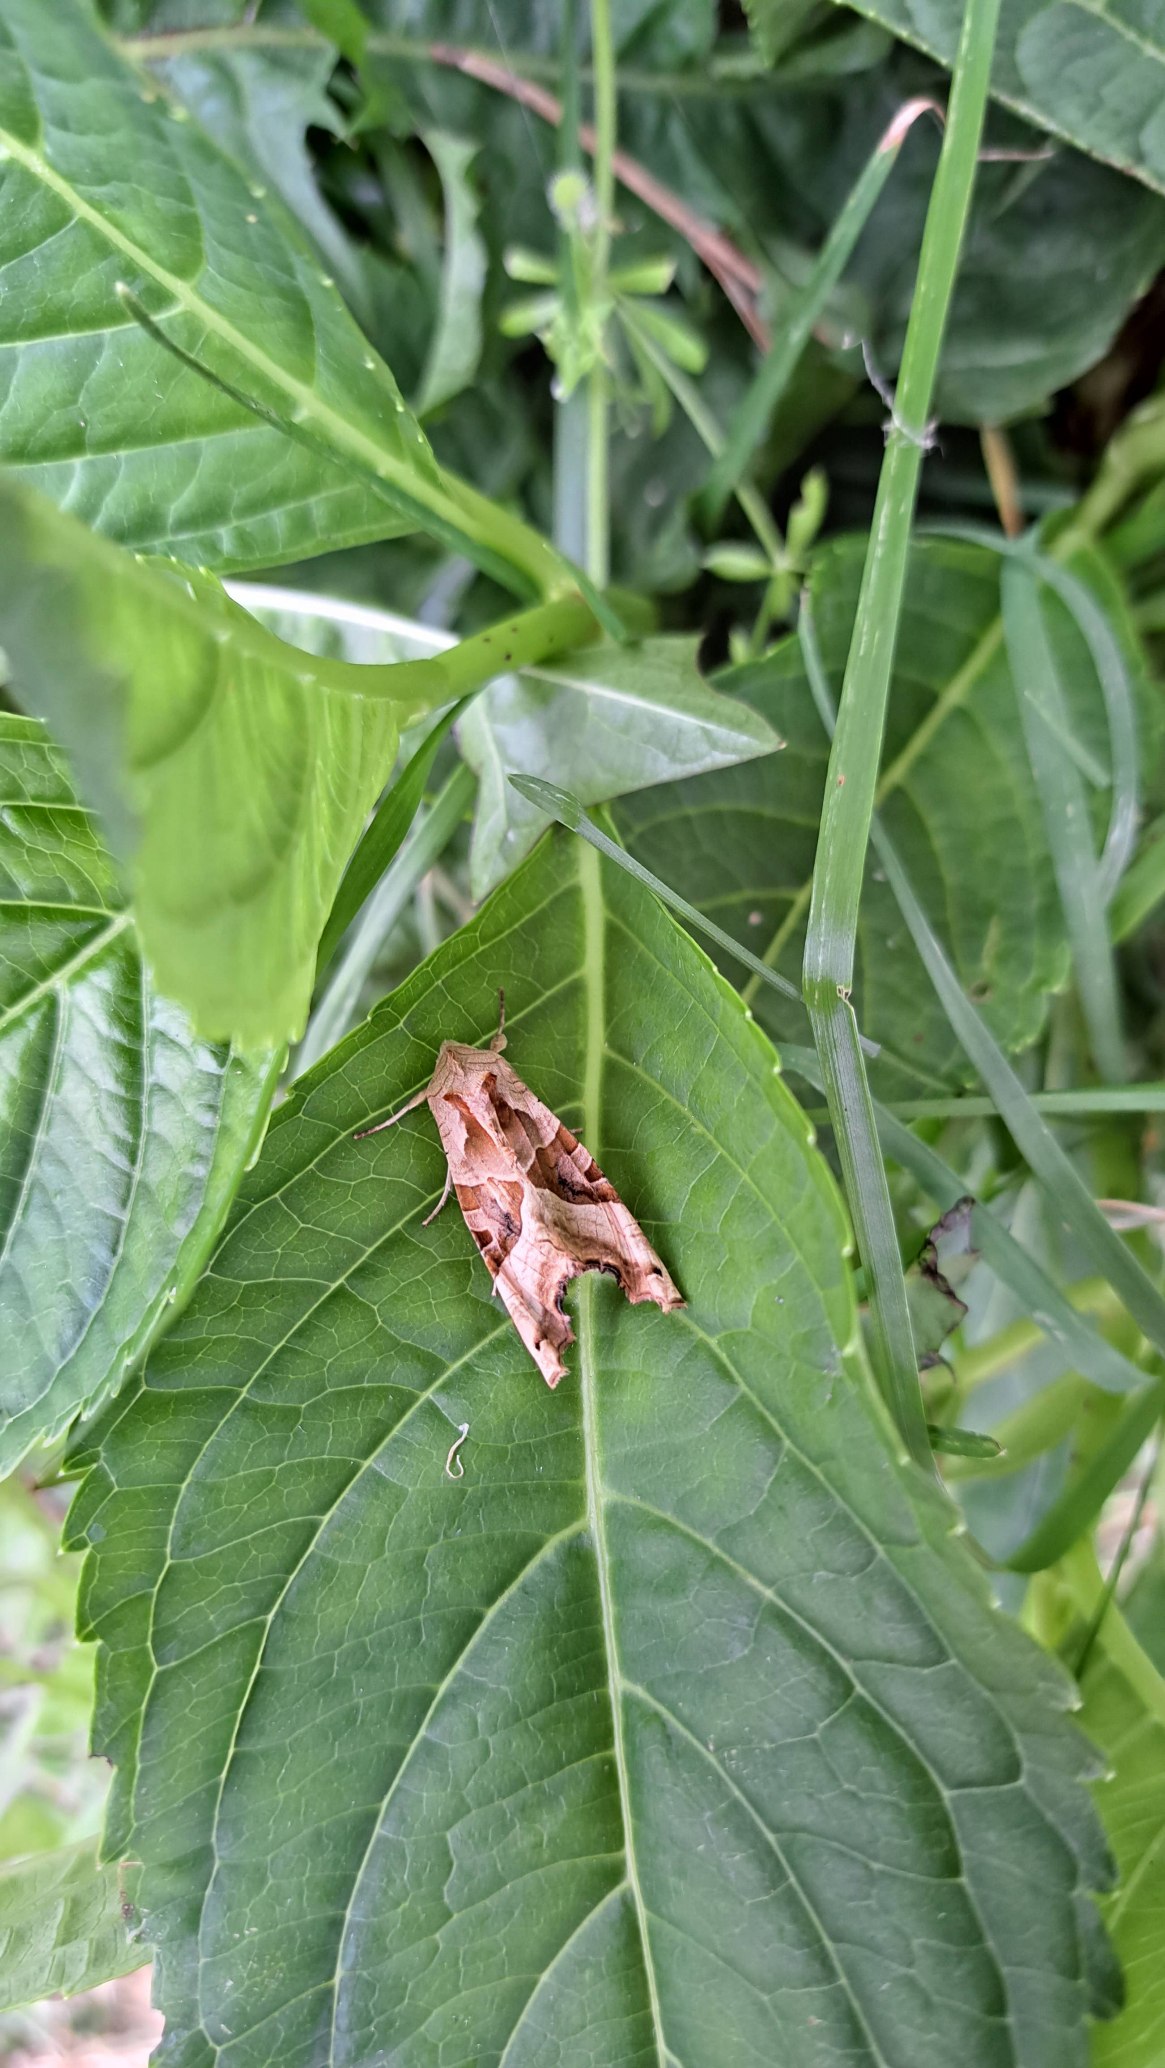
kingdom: Animalia
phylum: Arthropoda
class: Insecta
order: Lepidoptera
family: Noctuidae
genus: Phlogophora
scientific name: Phlogophora meticulosa
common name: Agatugle
